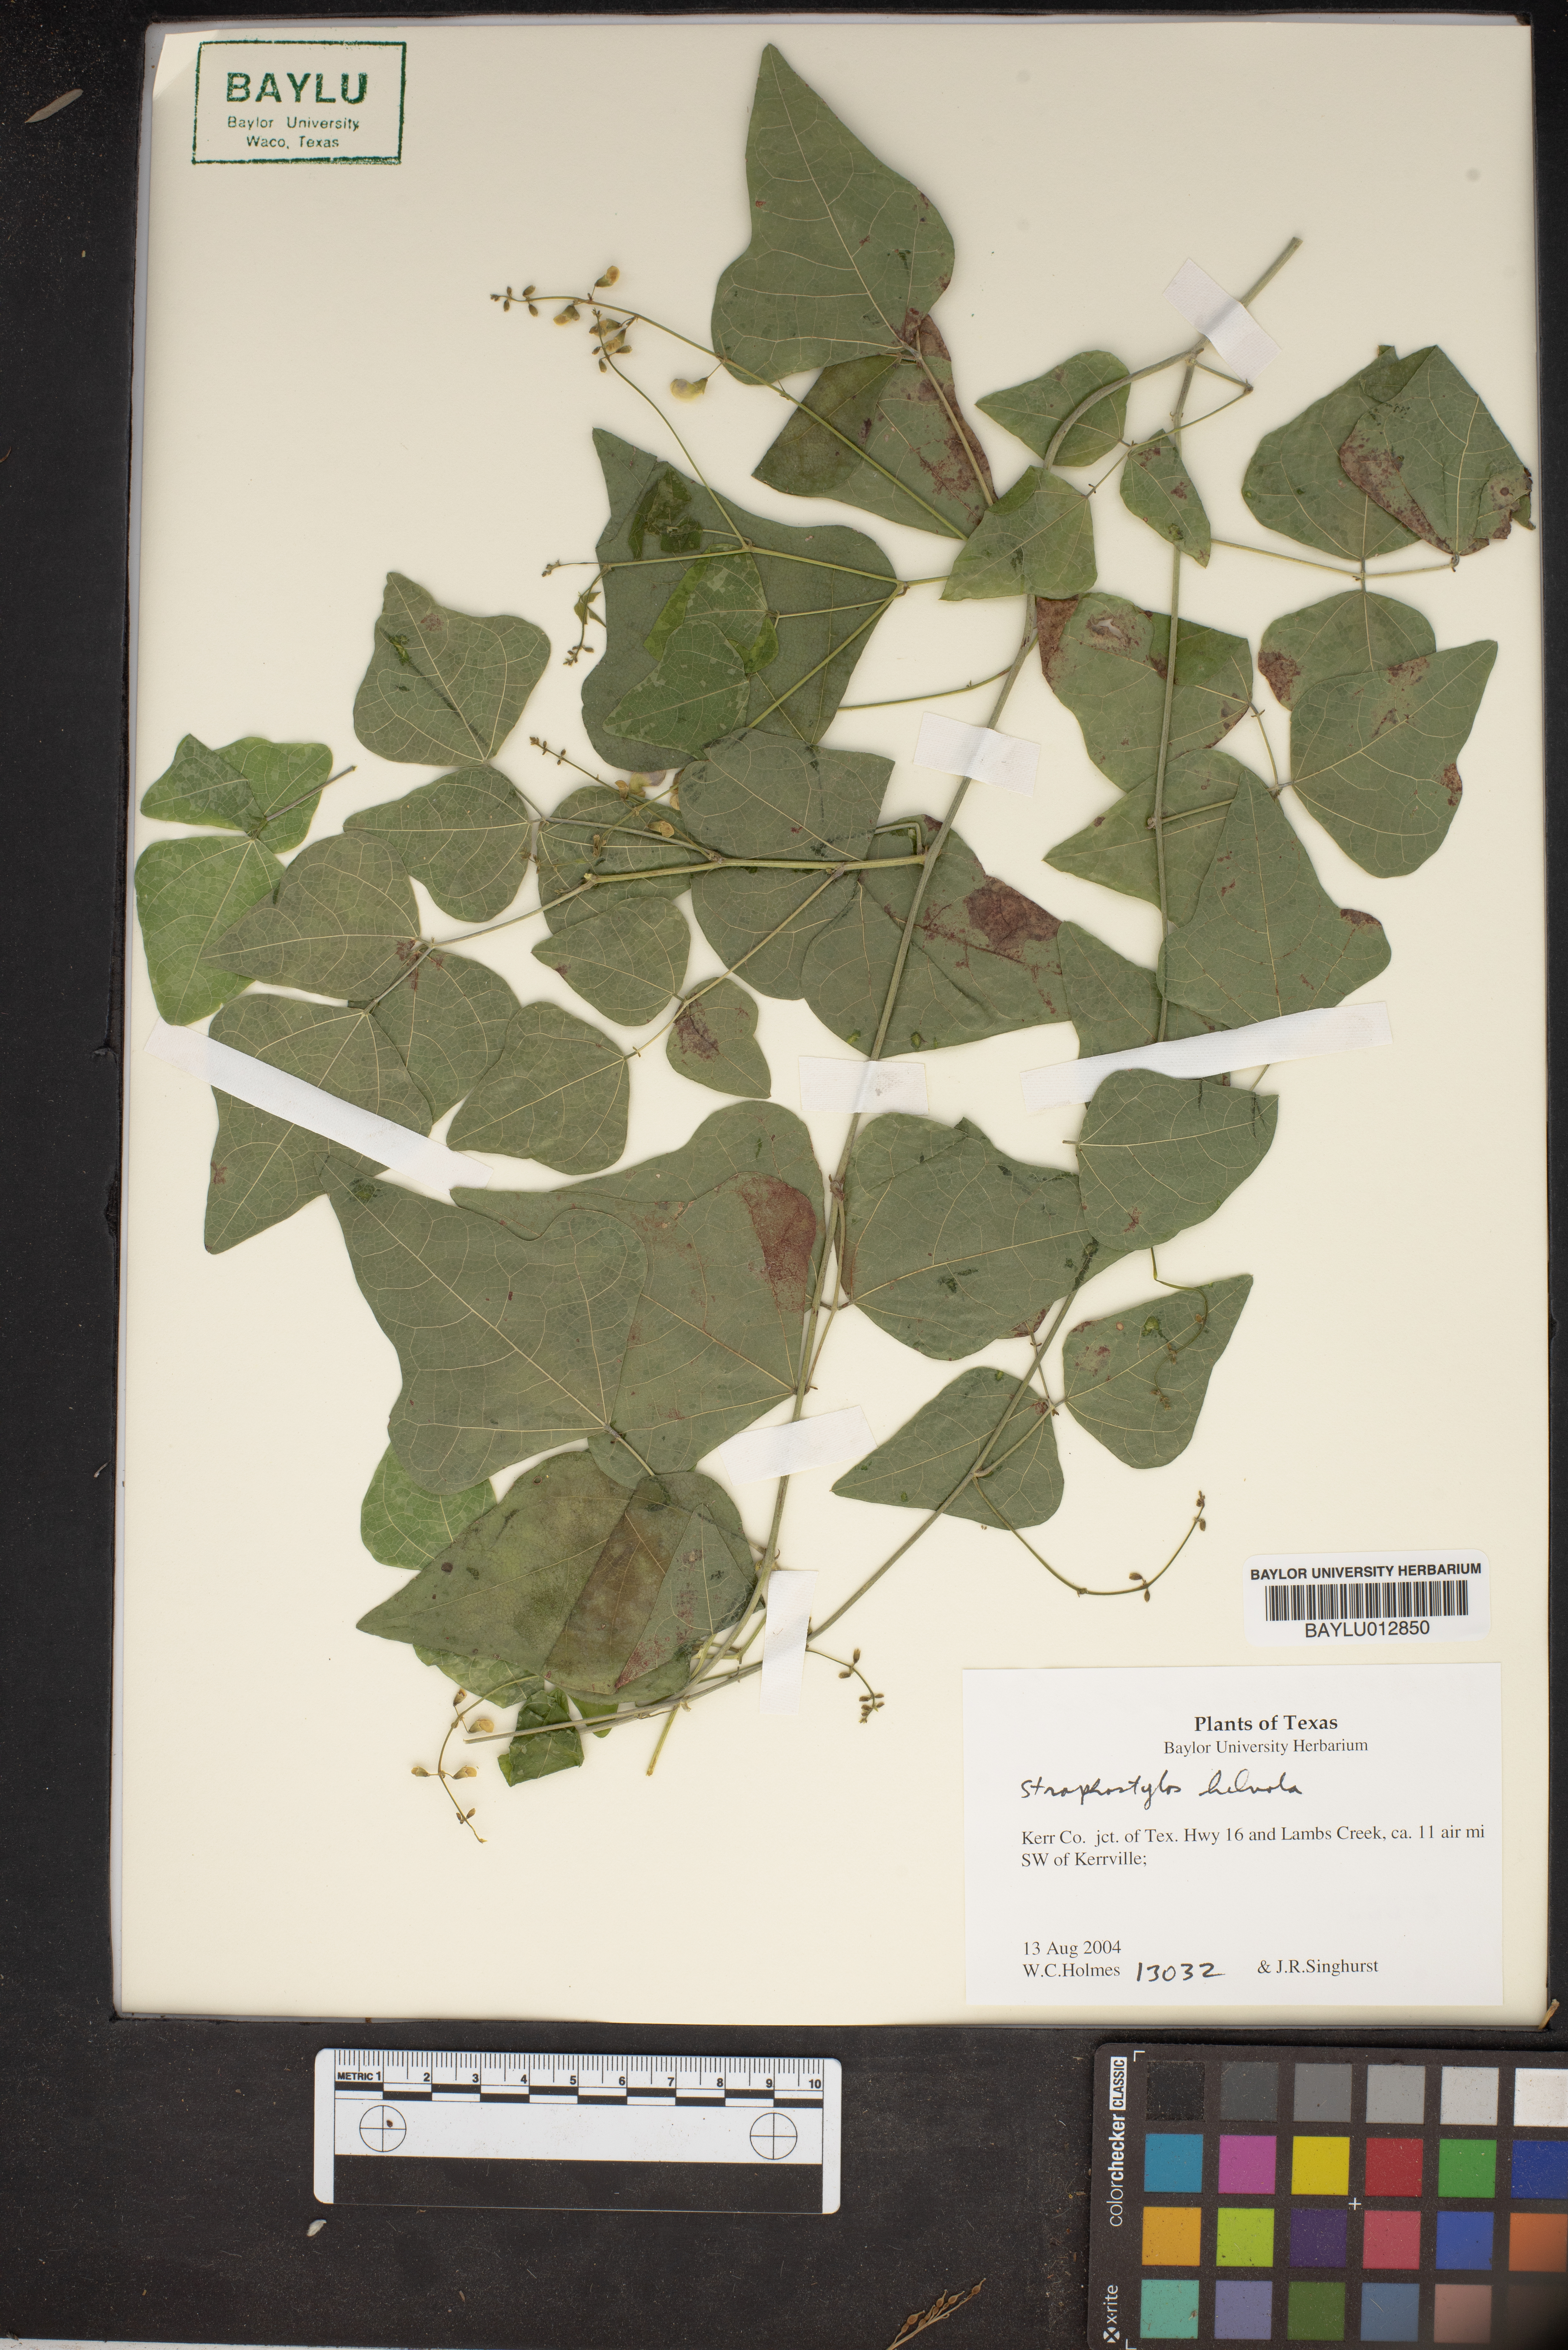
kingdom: Plantae
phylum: Tracheophyta
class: Magnoliopsida
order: Fabales
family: Fabaceae
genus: Strophostyles
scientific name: Strophostyles helvola
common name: Trailing wild bean
